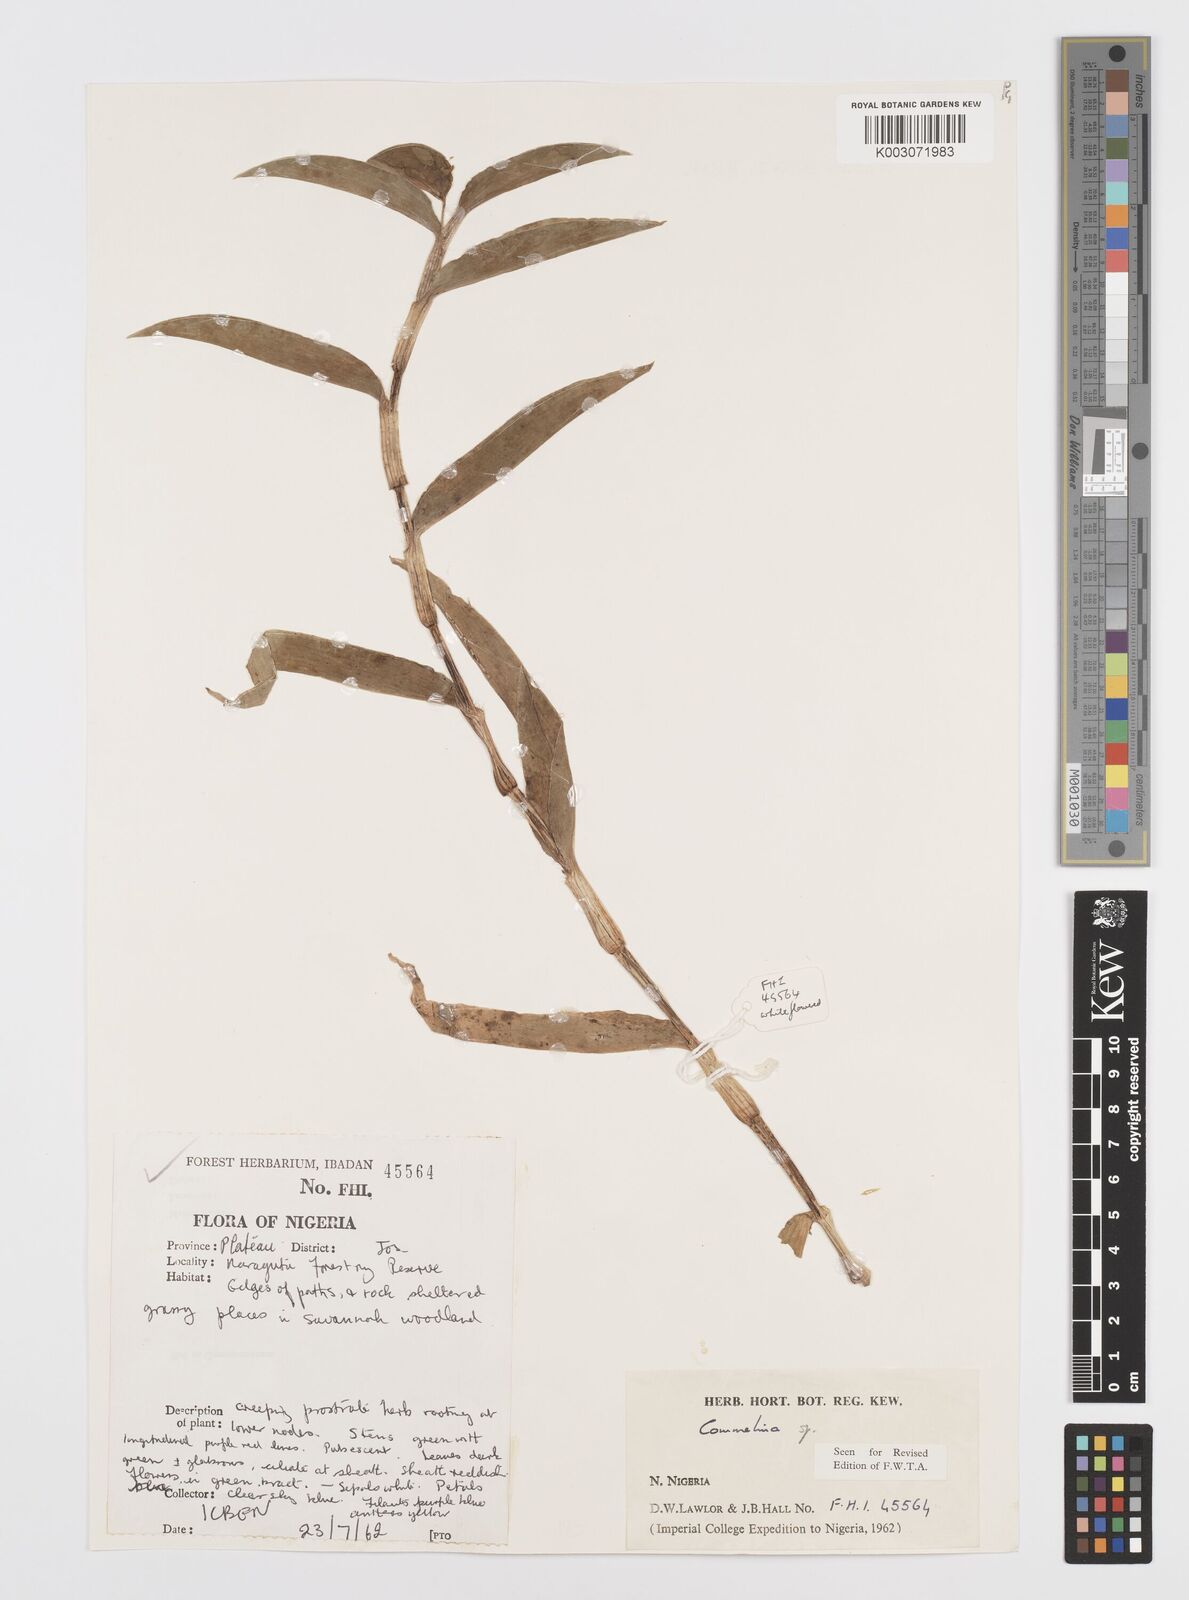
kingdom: Plantae
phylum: Tracheophyta
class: Liliopsida
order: Commelinales
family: Commelinaceae
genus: Commelina
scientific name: Commelina
